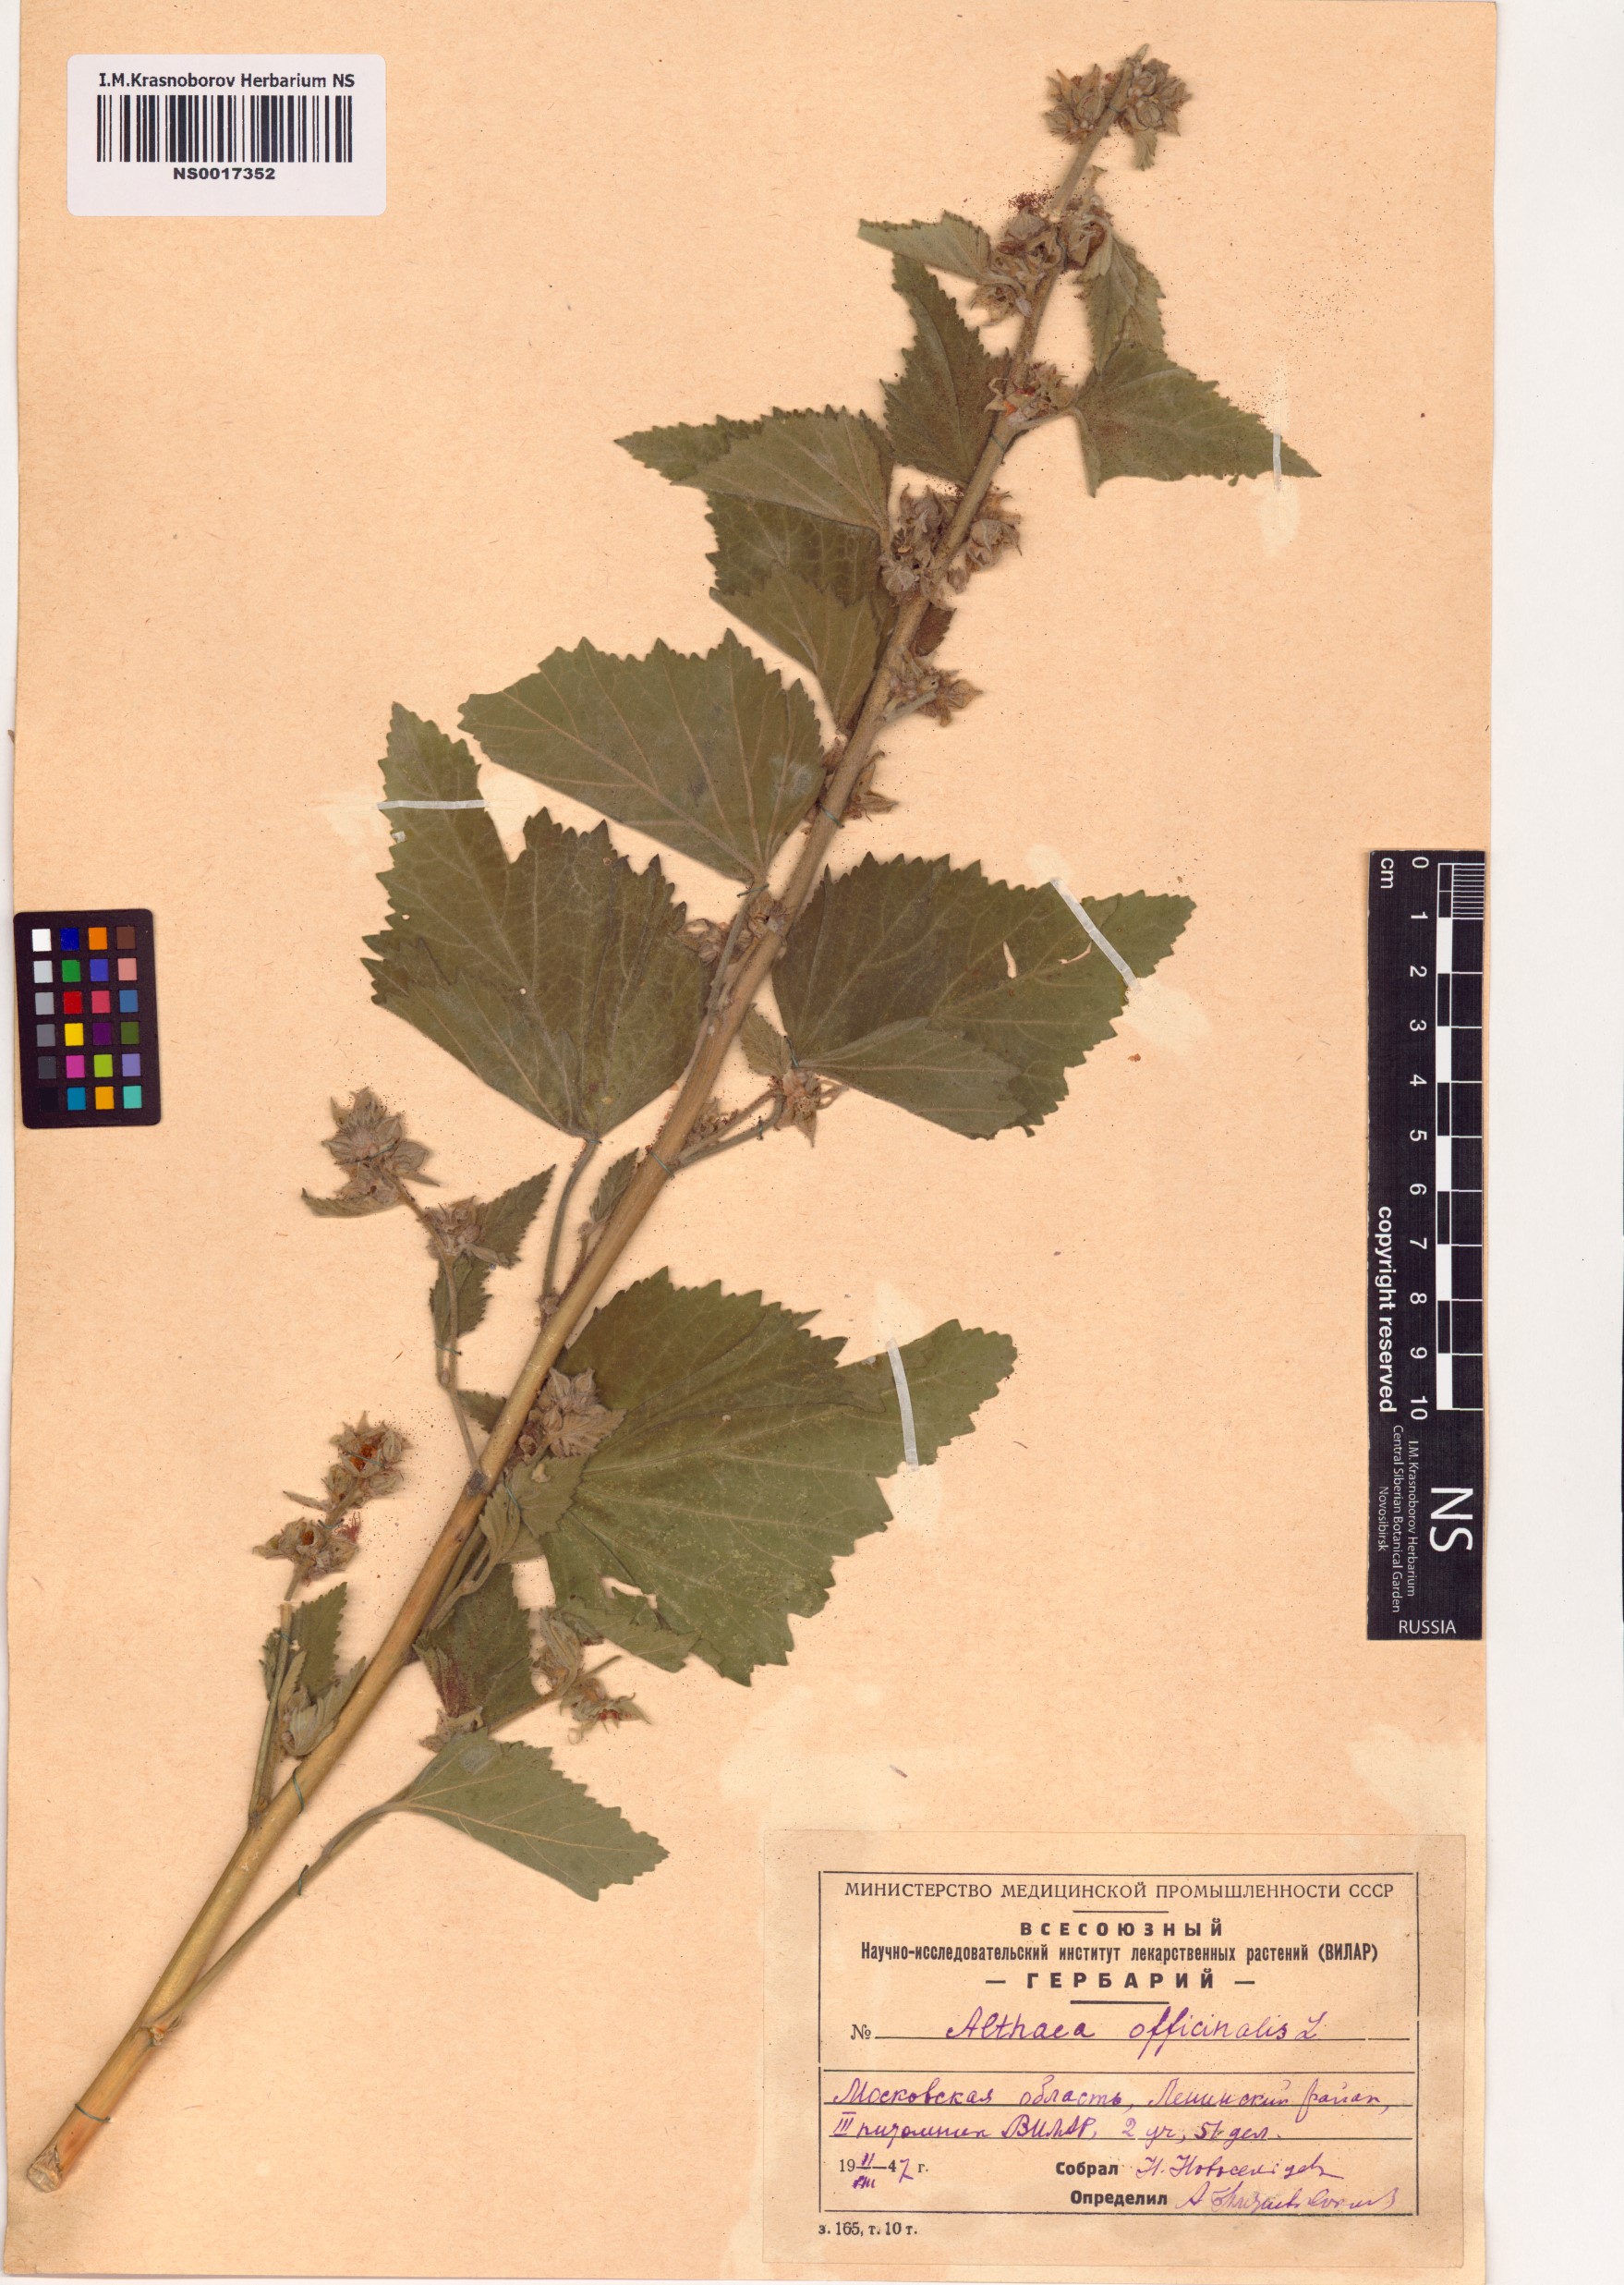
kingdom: Plantae
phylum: Tracheophyta
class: Magnoliopsida
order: Malvales
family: Malvaceae
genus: Althaea
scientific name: Althaea officinalis
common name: Marsh-mallow
